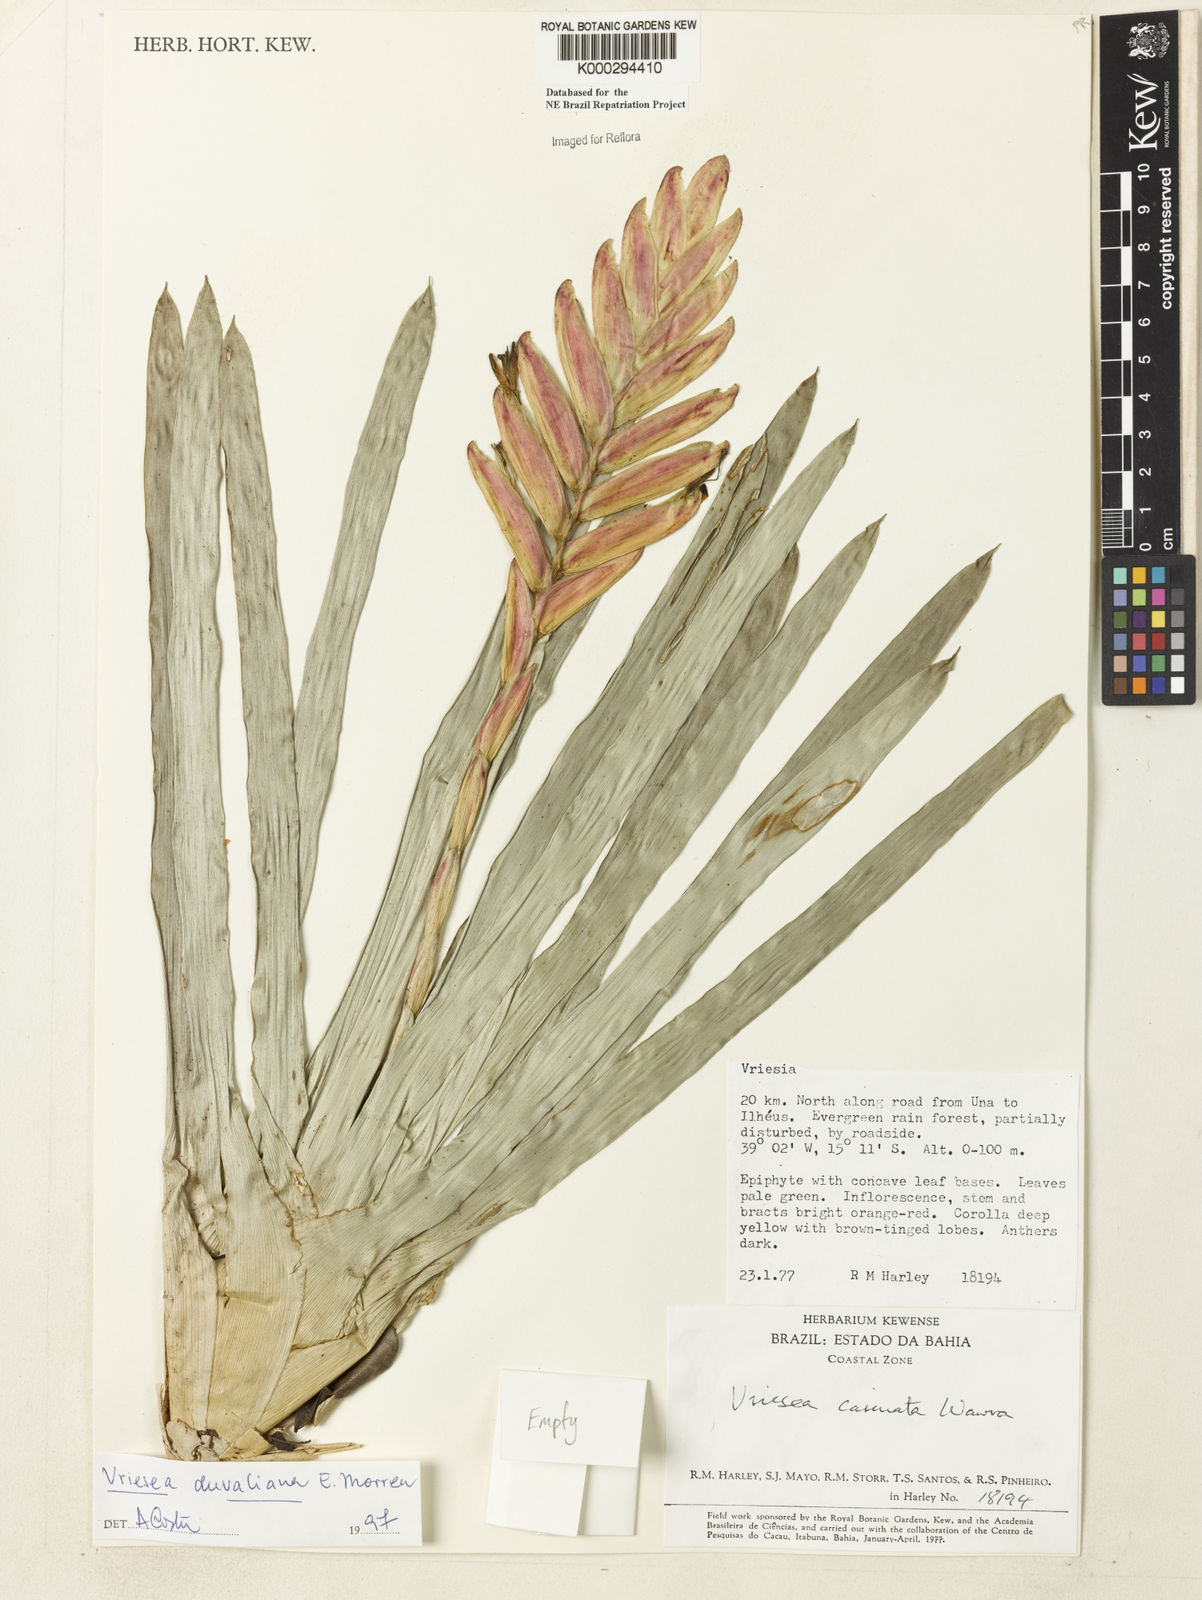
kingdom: Plantae
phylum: Tracheophyta
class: Liliopsida
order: Poales
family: Bromeliaceae
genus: Vriesea
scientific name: Vriesea duvaliana
